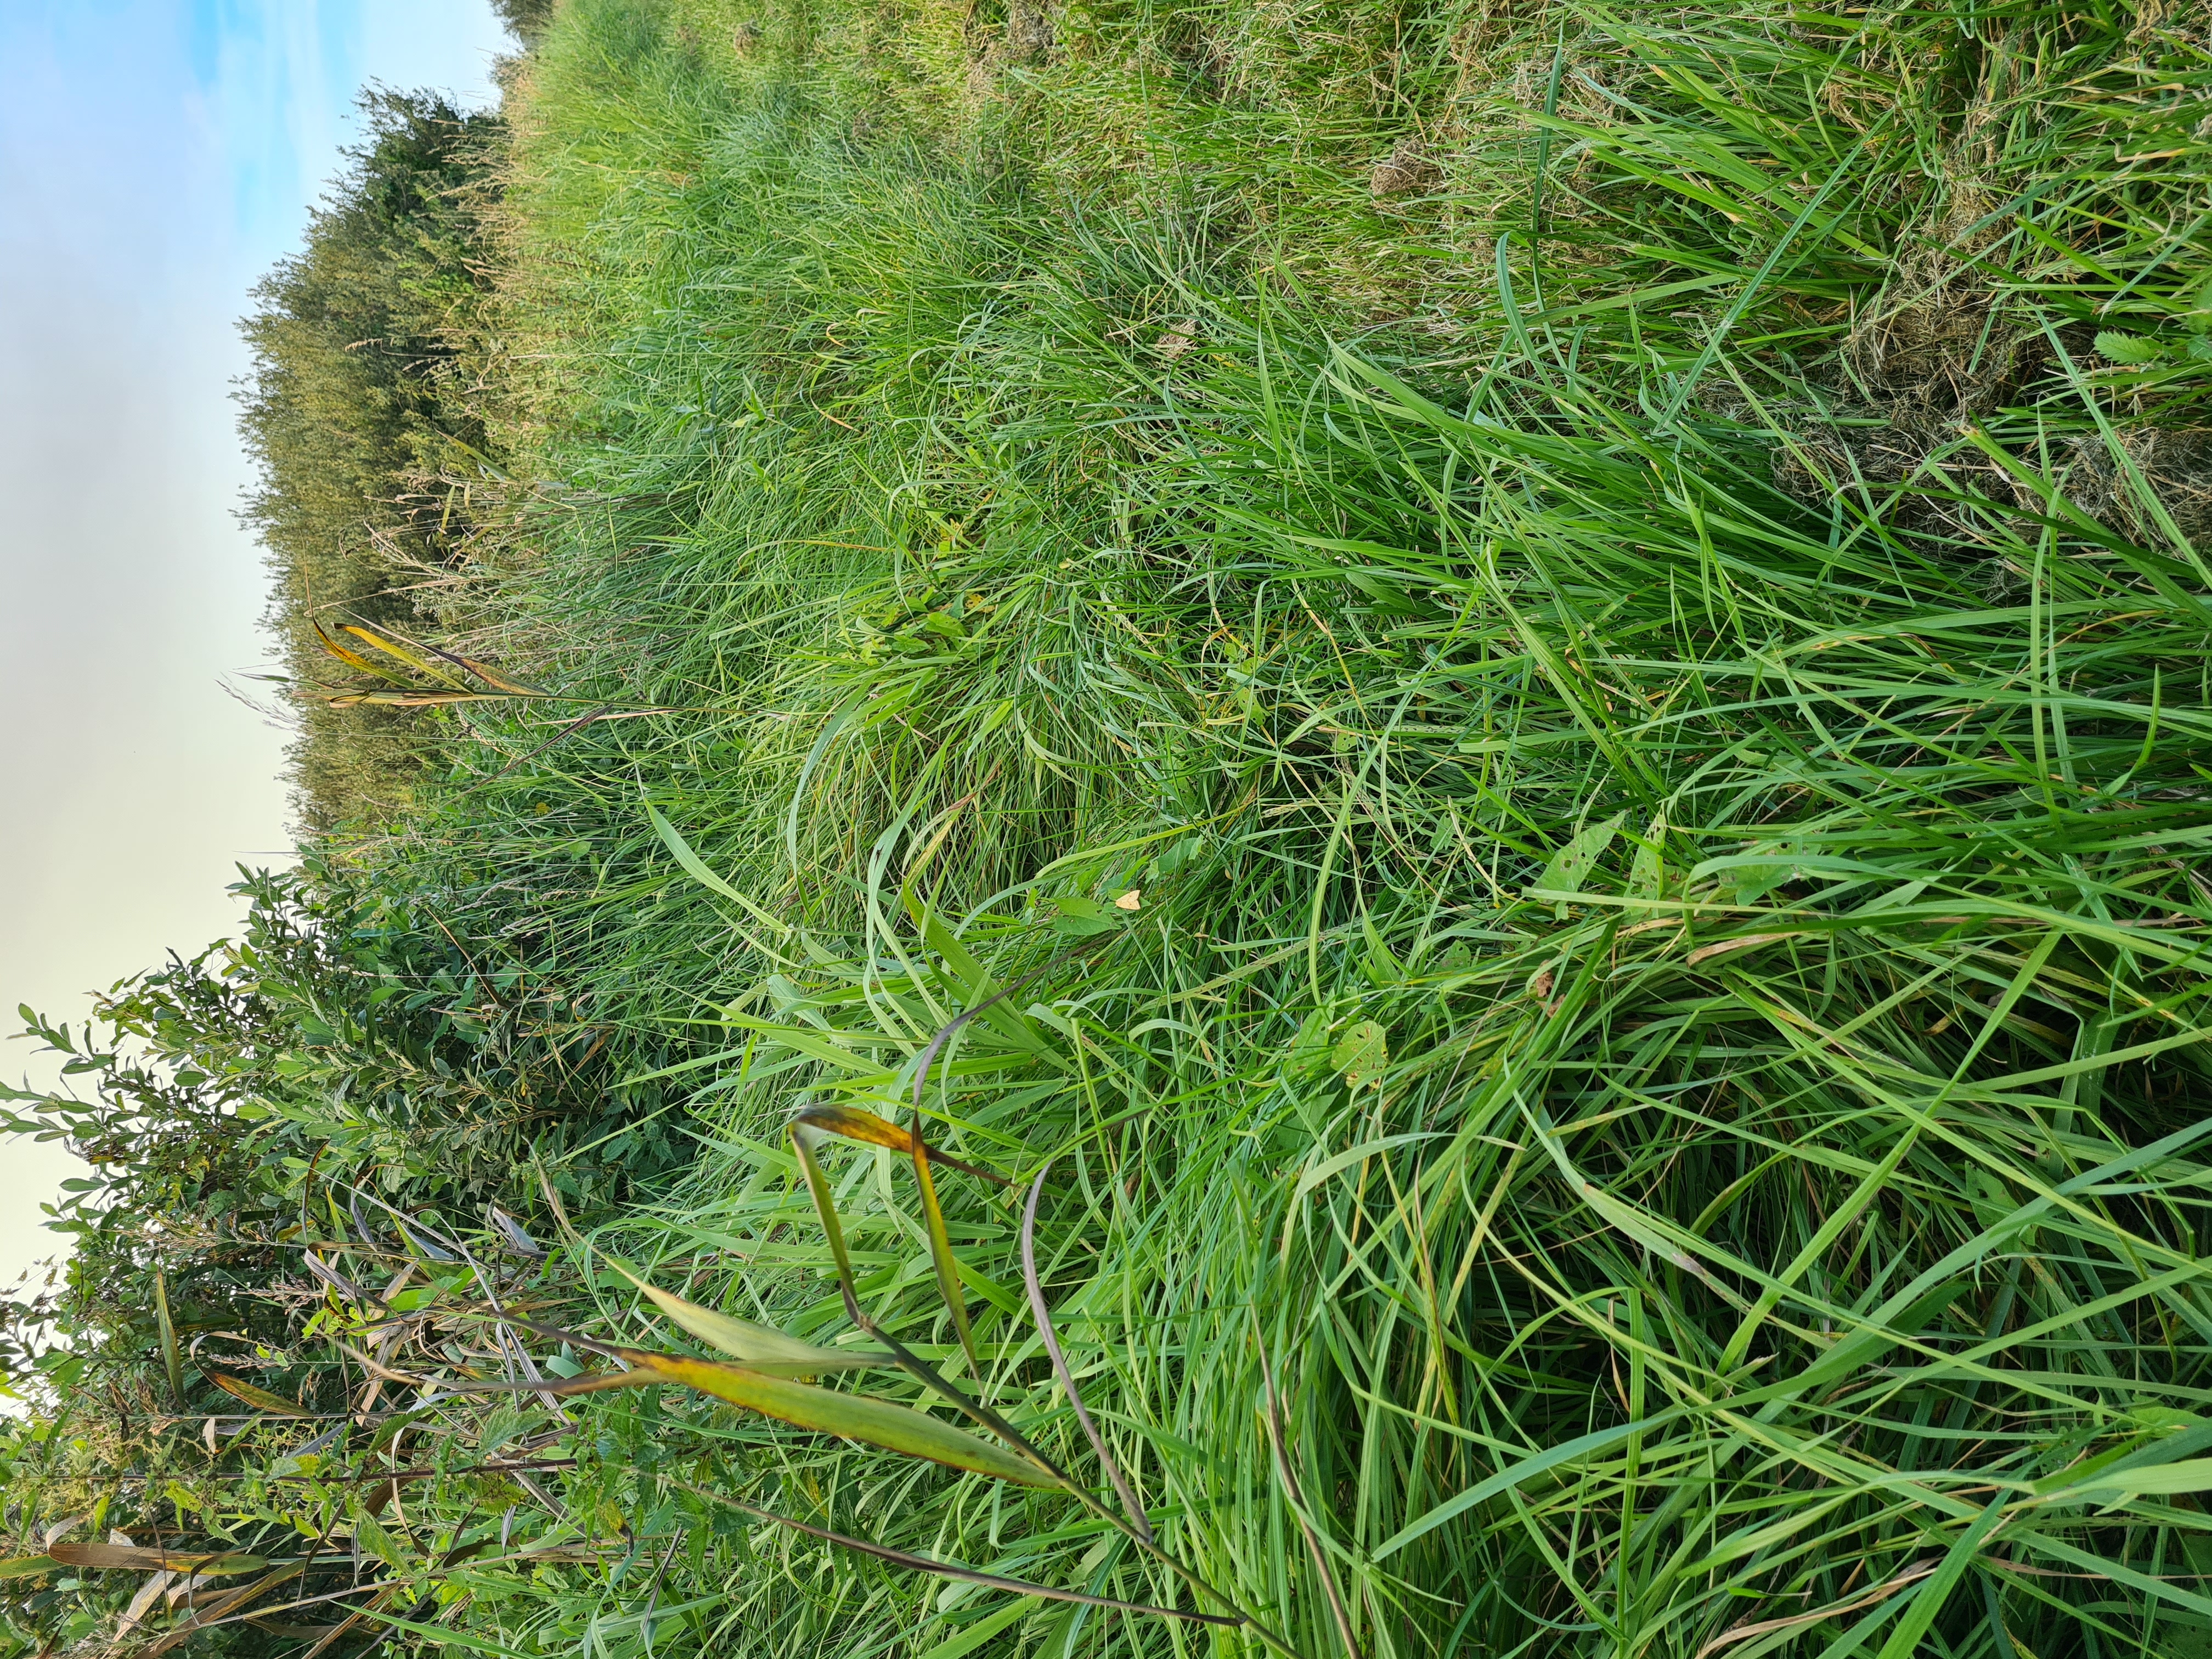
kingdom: Animalia
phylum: Arthropoda
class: Insecta
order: Lepidoptera
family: Noctuidae
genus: Xanthia
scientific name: Xanthia Cirrhia icteritia
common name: Brombær-guldugle
